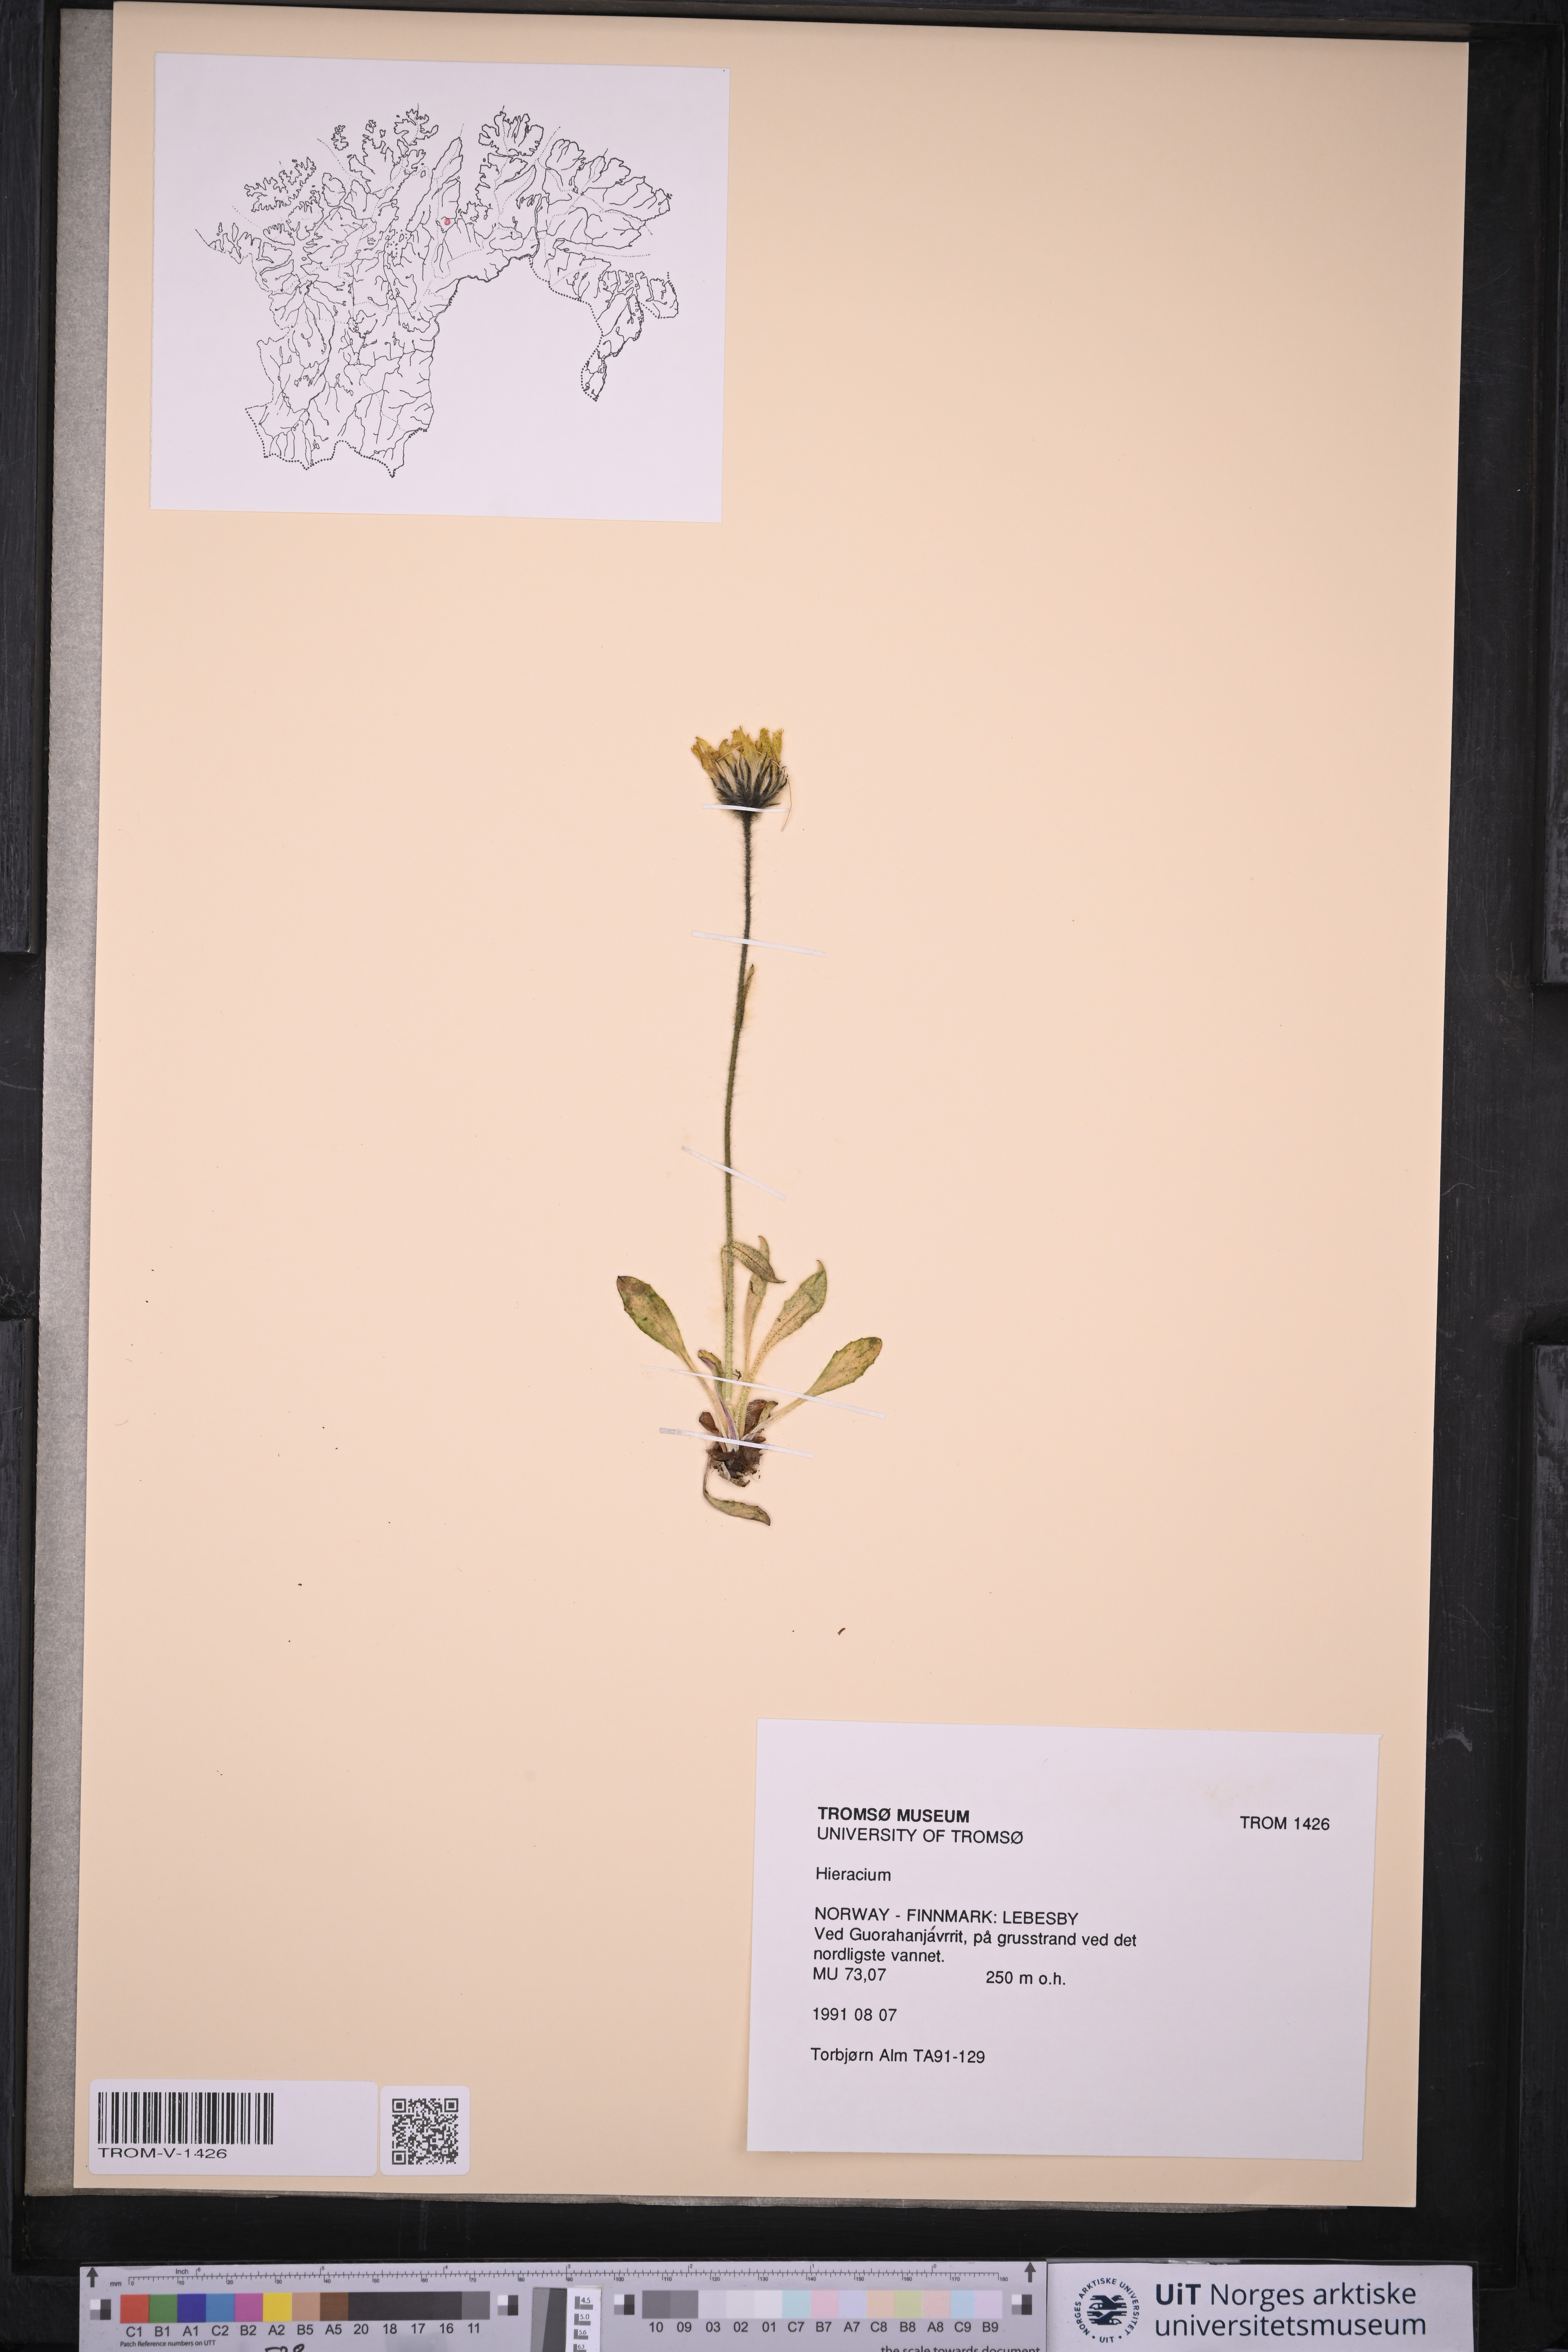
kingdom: Plantae
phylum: Tracheophyta
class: Magnoliopsida
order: Asterales
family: Asteraceae
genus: Hieracium
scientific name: Hieracium
